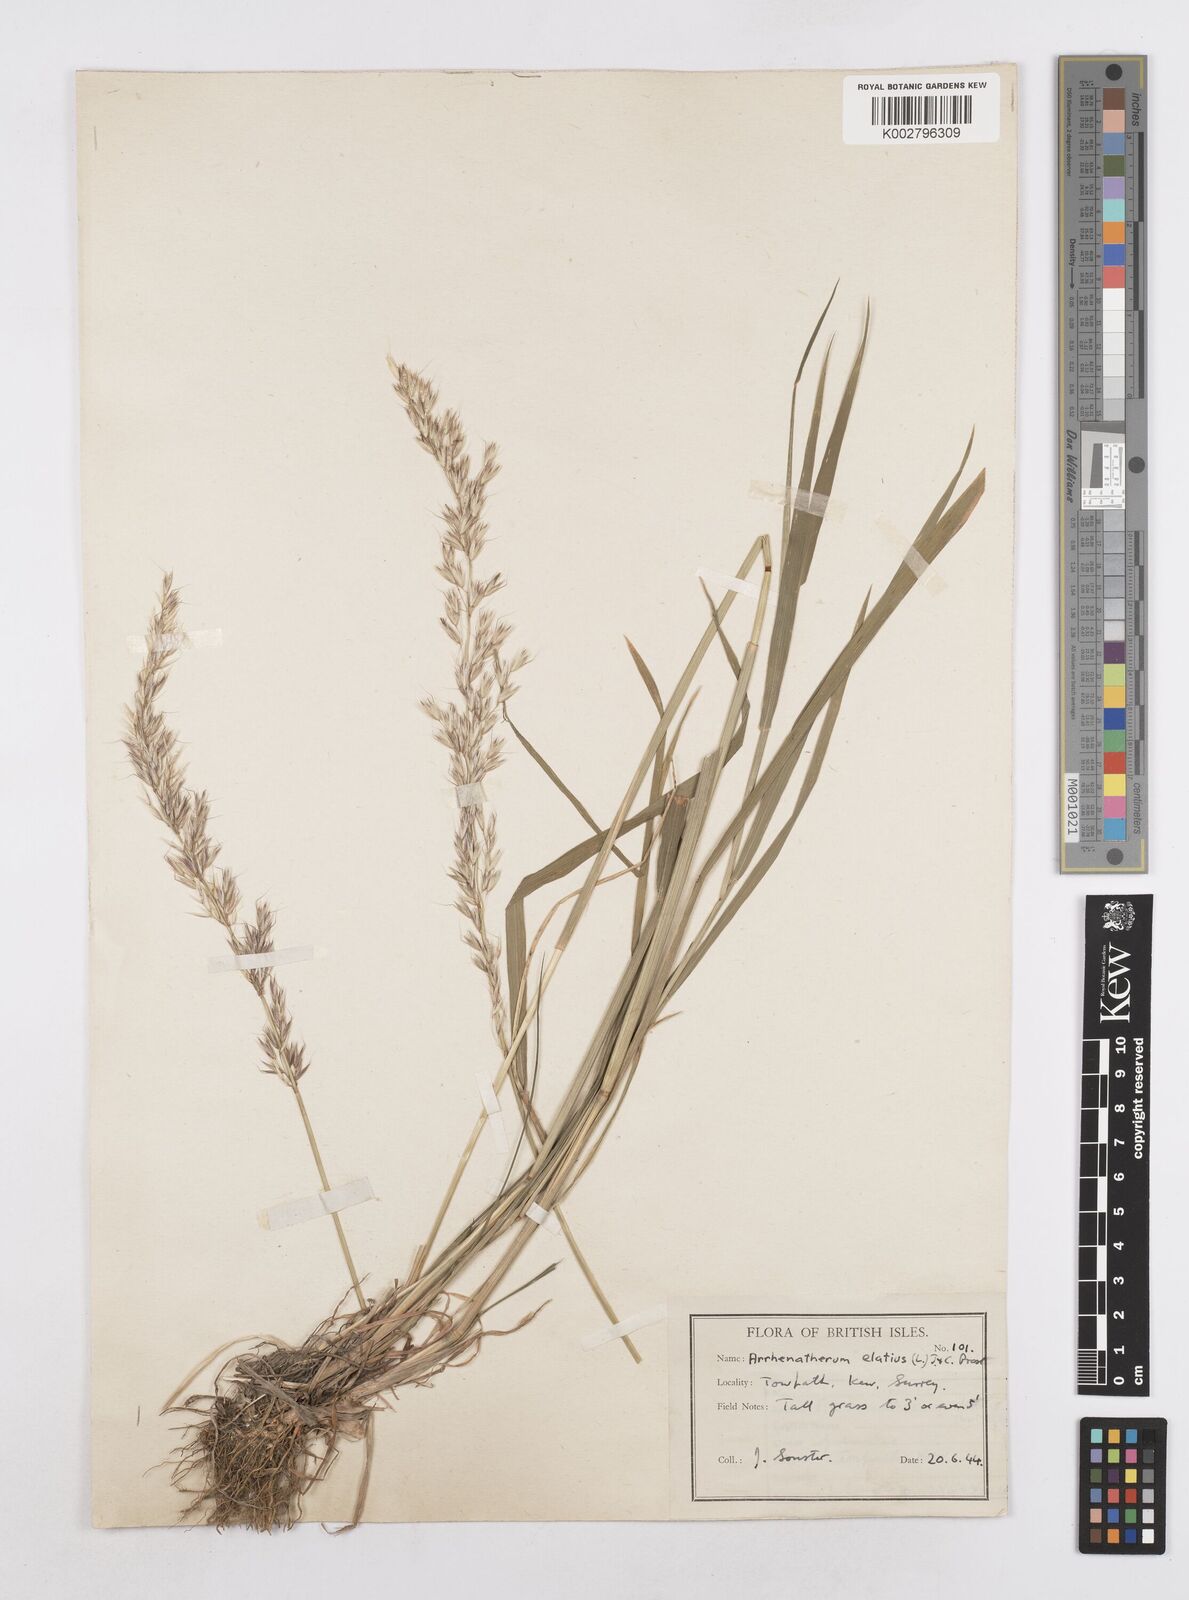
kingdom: Plantae
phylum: Tracheophyta
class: Liliopsida
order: Poales
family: Poaceae
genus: Arrhenatherum
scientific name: Arrhenatherum elatius
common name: Tall oatgrass
